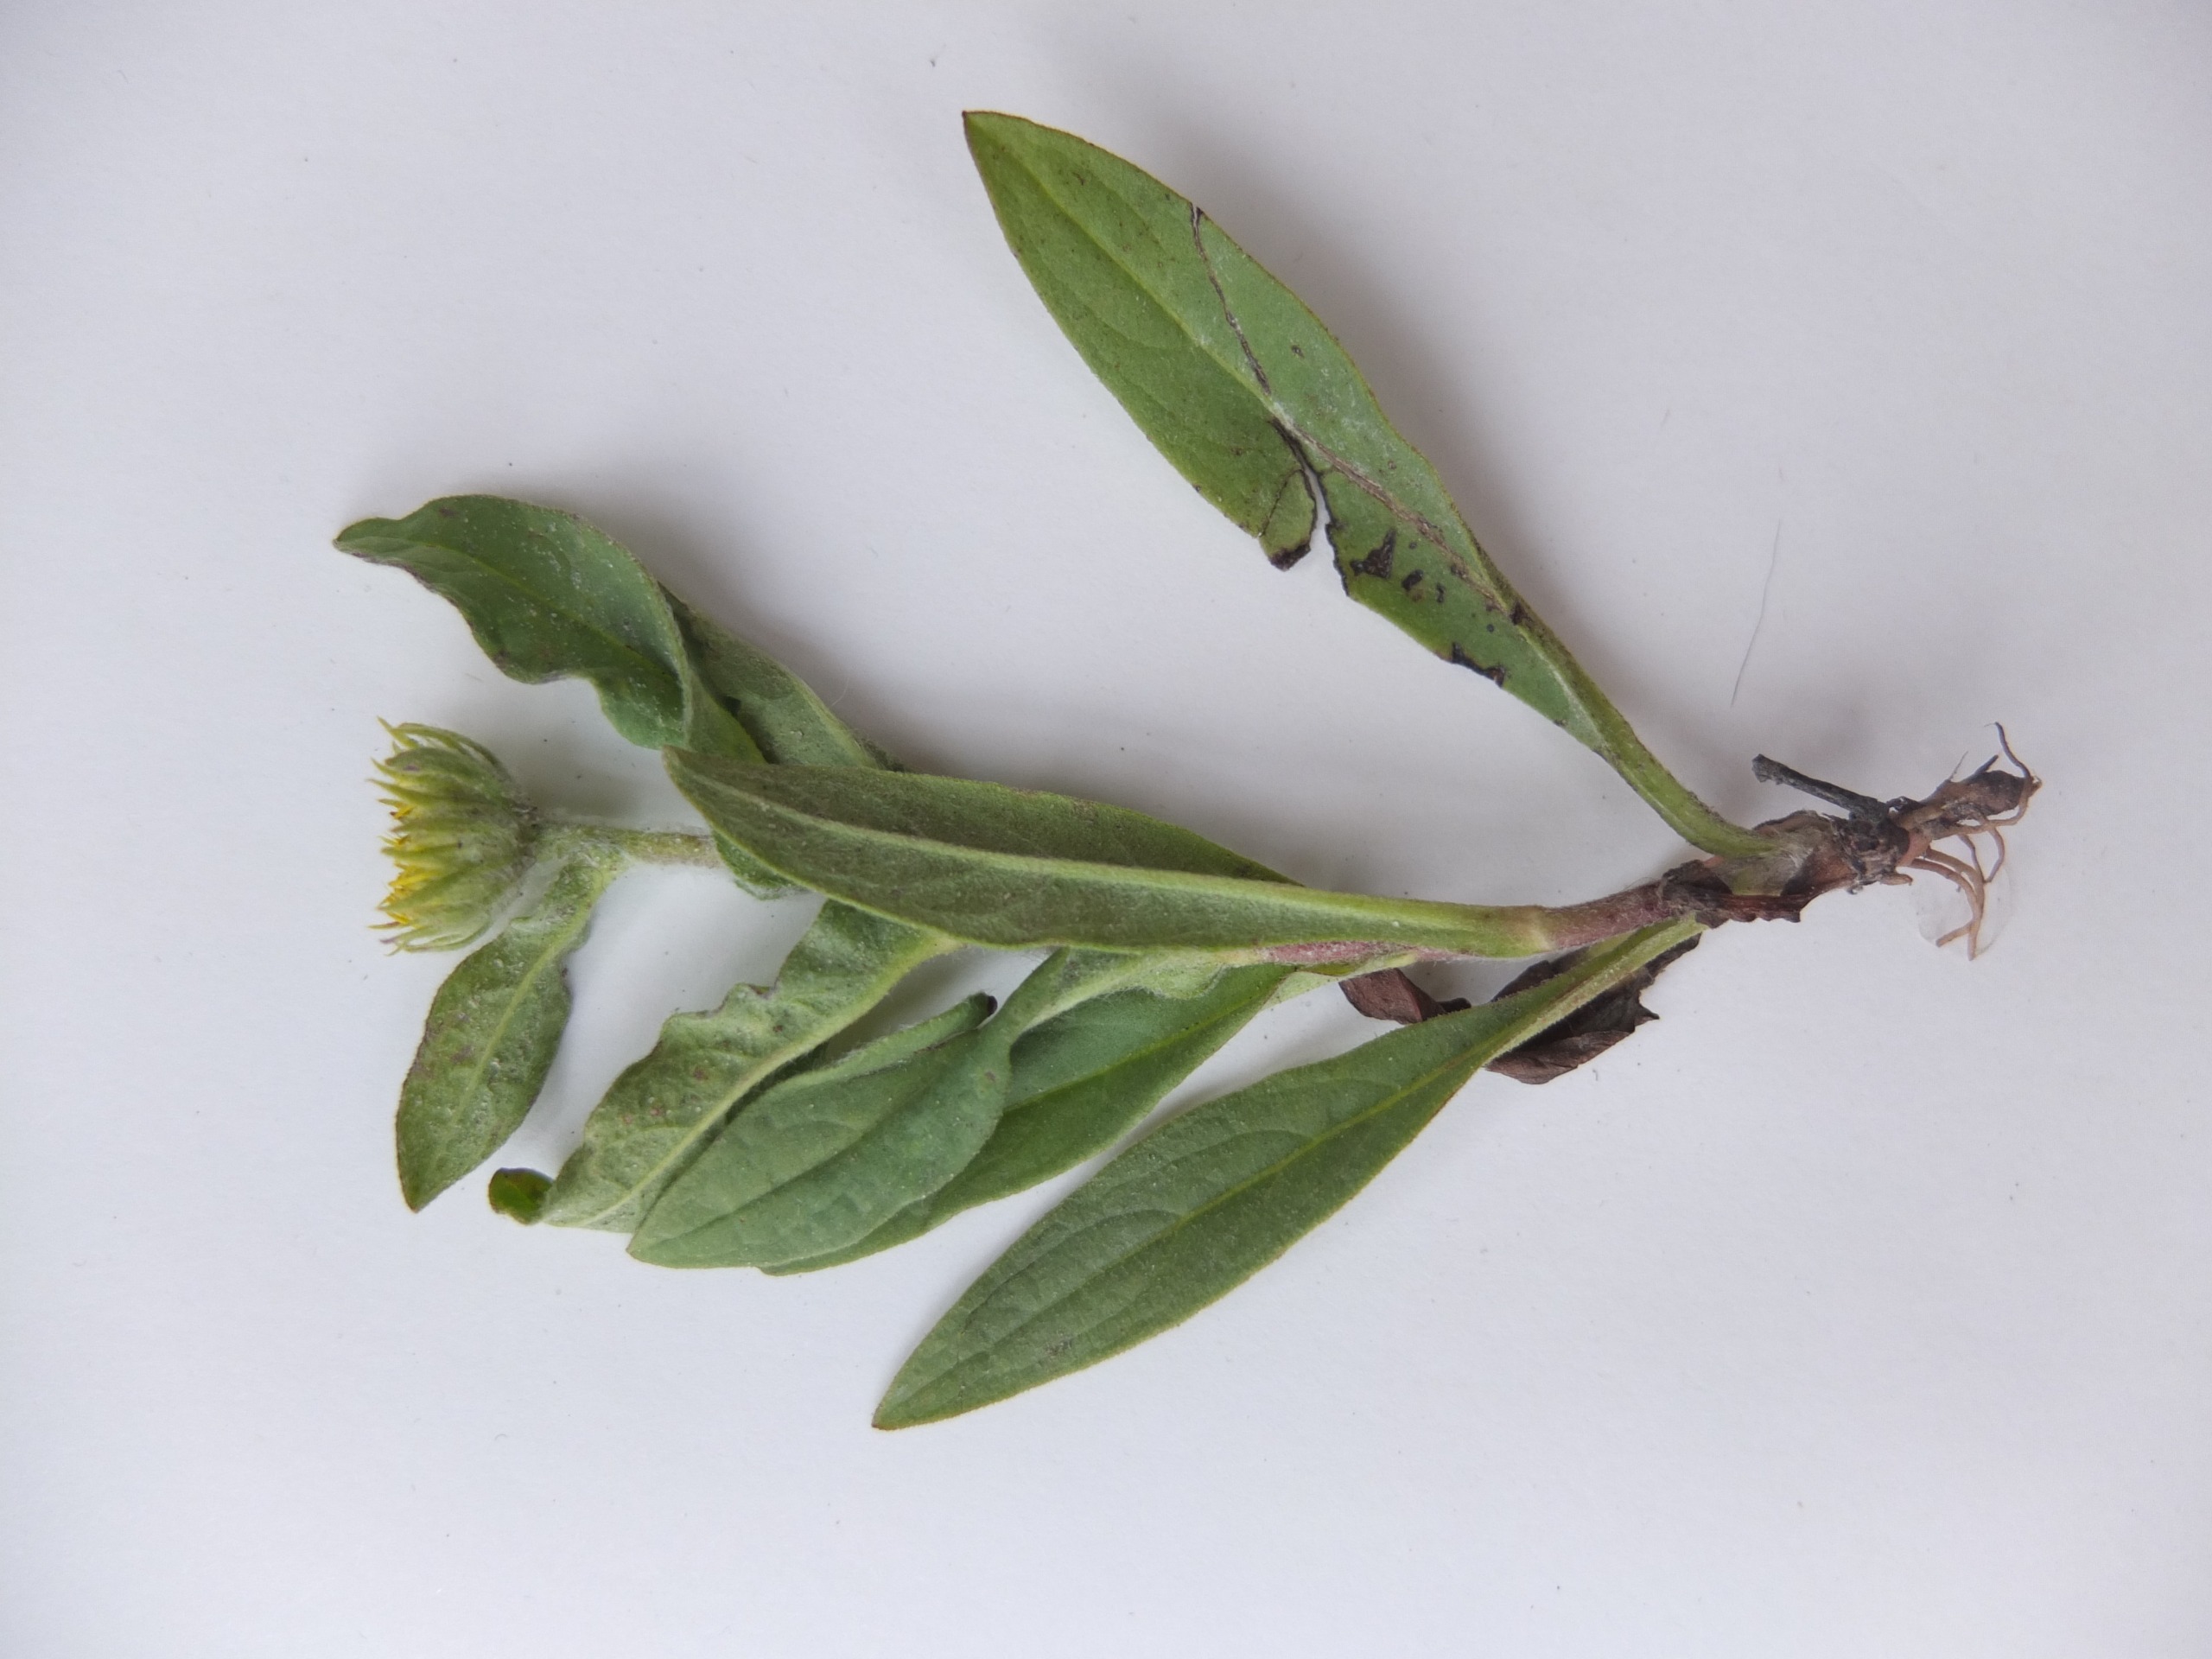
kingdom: Plantae
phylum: Tracheophyta
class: Magnoliopsida
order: Asterales
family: Asteraceae
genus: Pentanema
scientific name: Pentanema britannicum
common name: Soløje-alant
